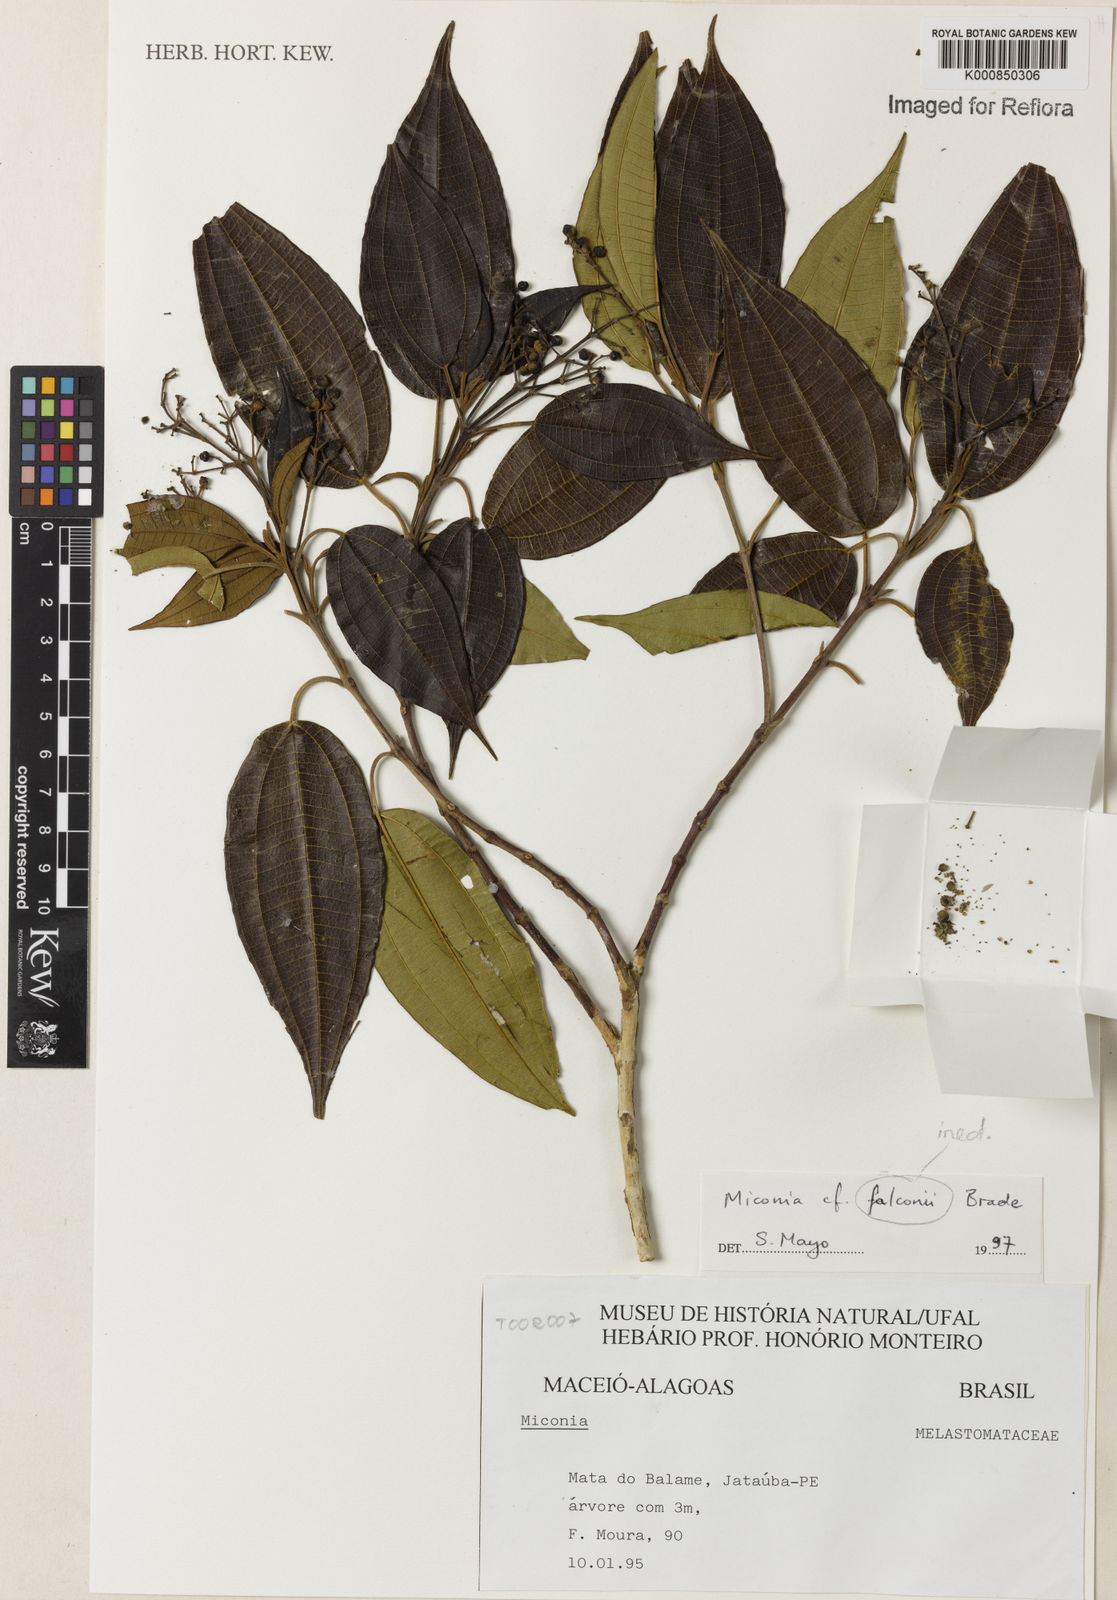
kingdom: Plantae
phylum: Tracheophyta
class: Magnoliopsida
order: Myrtales
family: Melastomataceae
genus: Miconia
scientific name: Miconia
